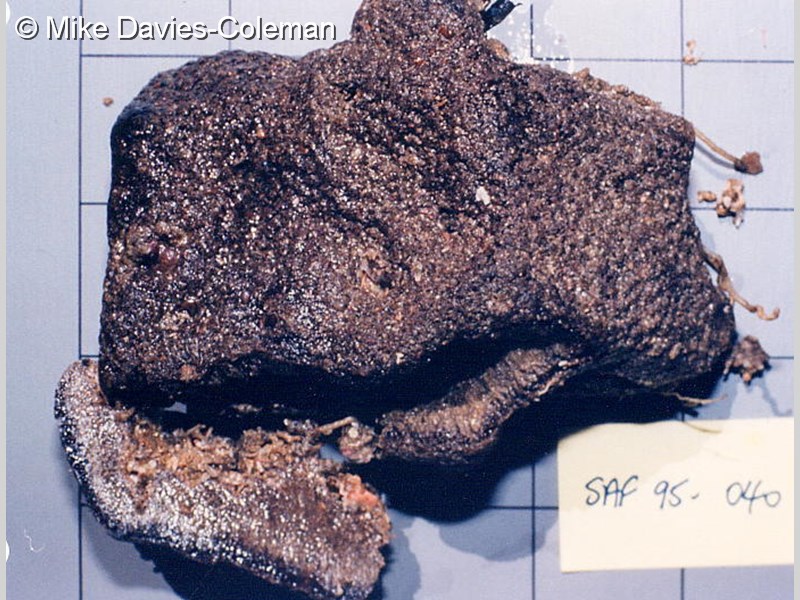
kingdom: Animalia
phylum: Chordata
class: Ascidiacea
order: Aplousobranchia
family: Polyclinidae
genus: Polyclinum
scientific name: Polyclinum isipingense
